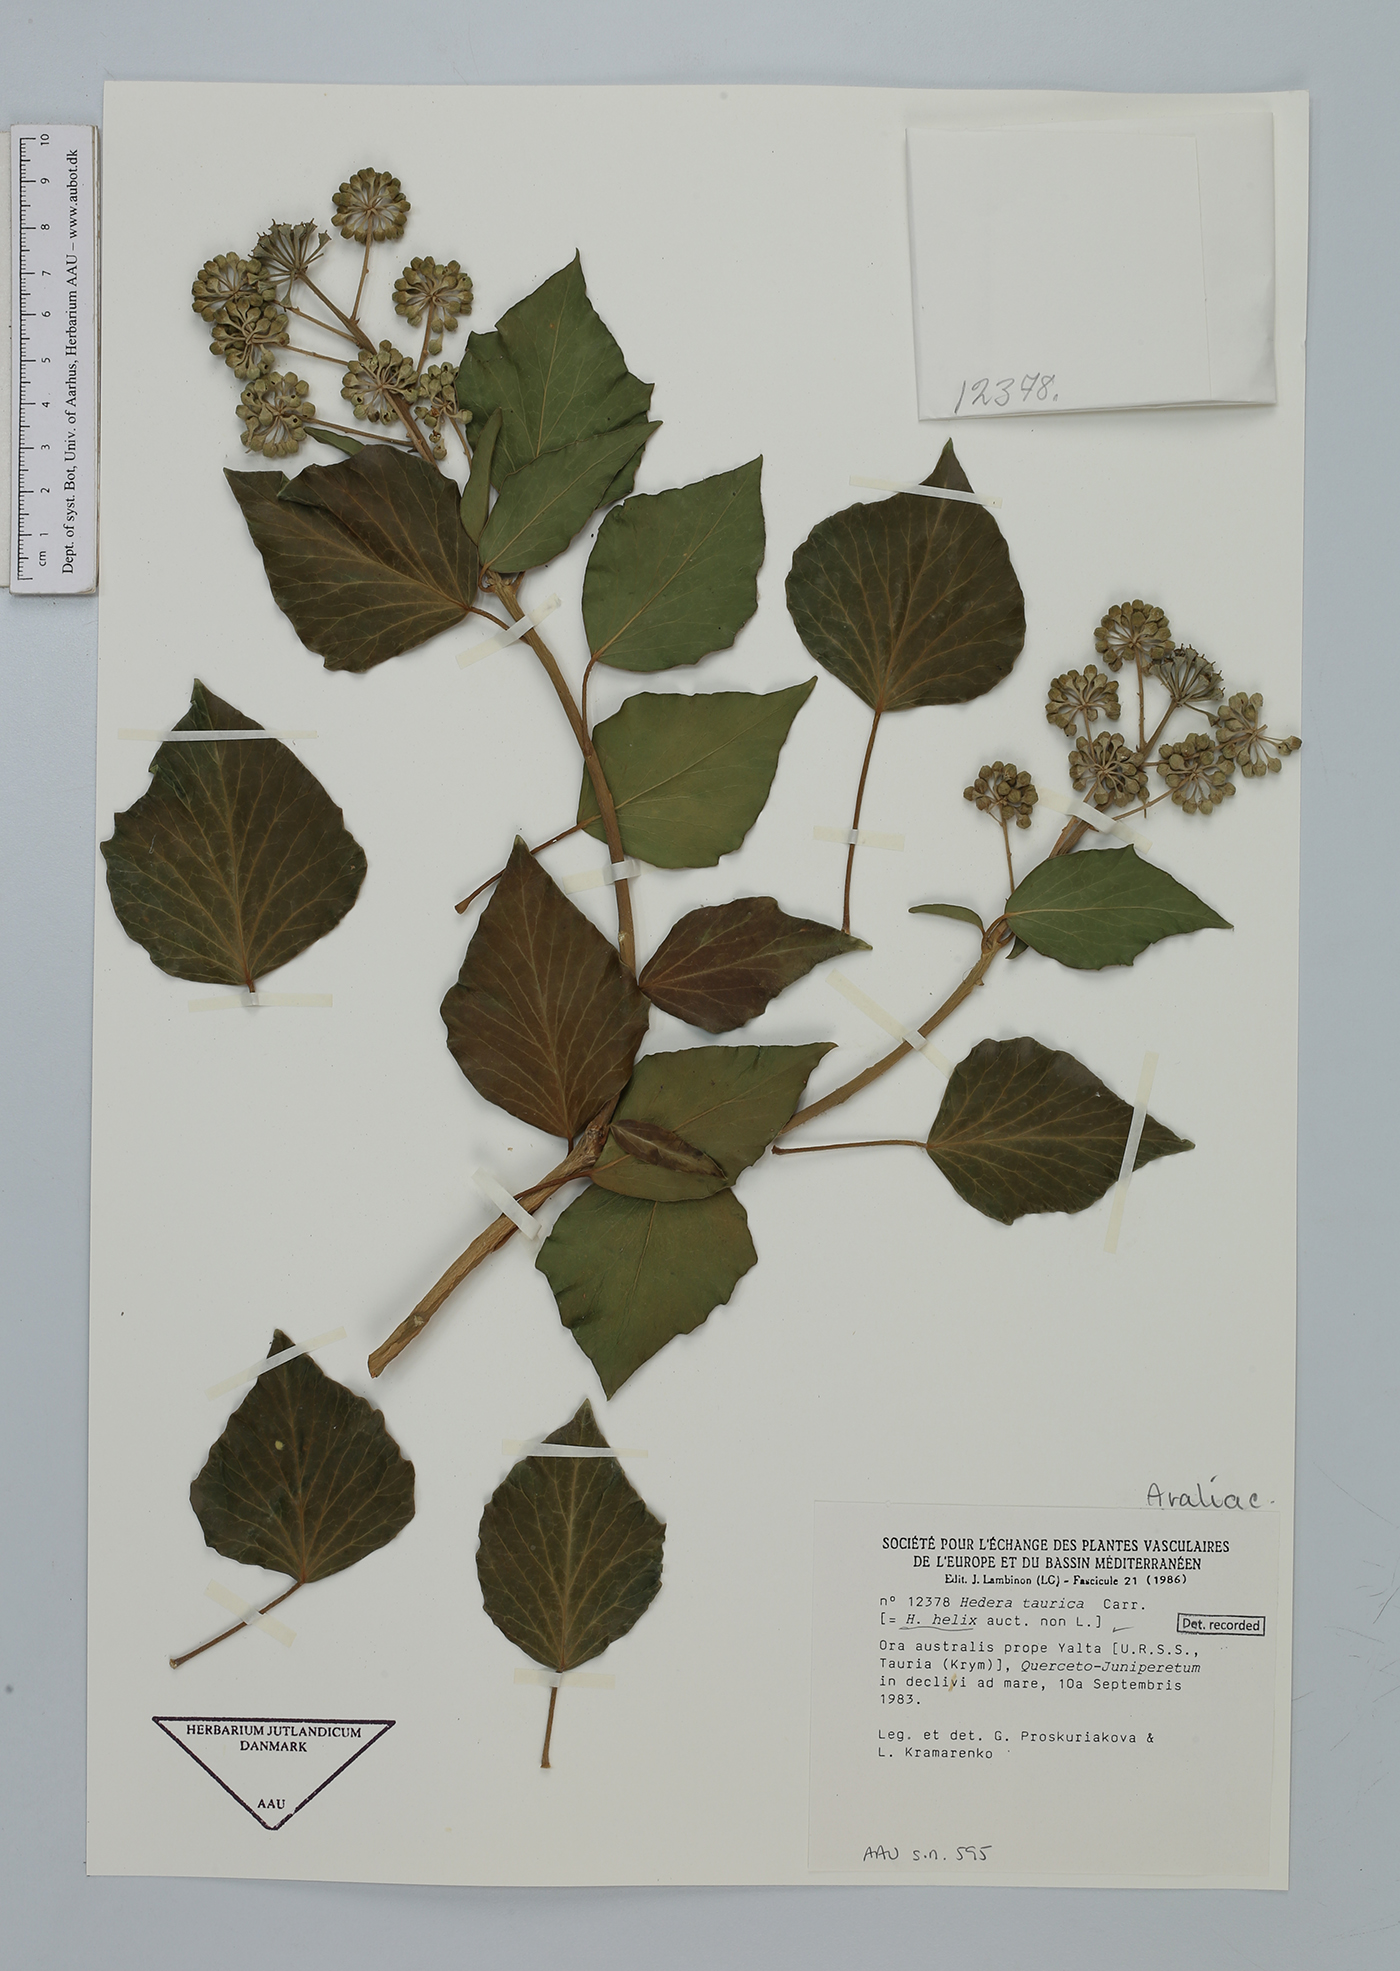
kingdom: Plantae
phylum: Tracheophyta
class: Magnoliopsida
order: Apiales
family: Araliaceae
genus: Hedera
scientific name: Hedera taurica
